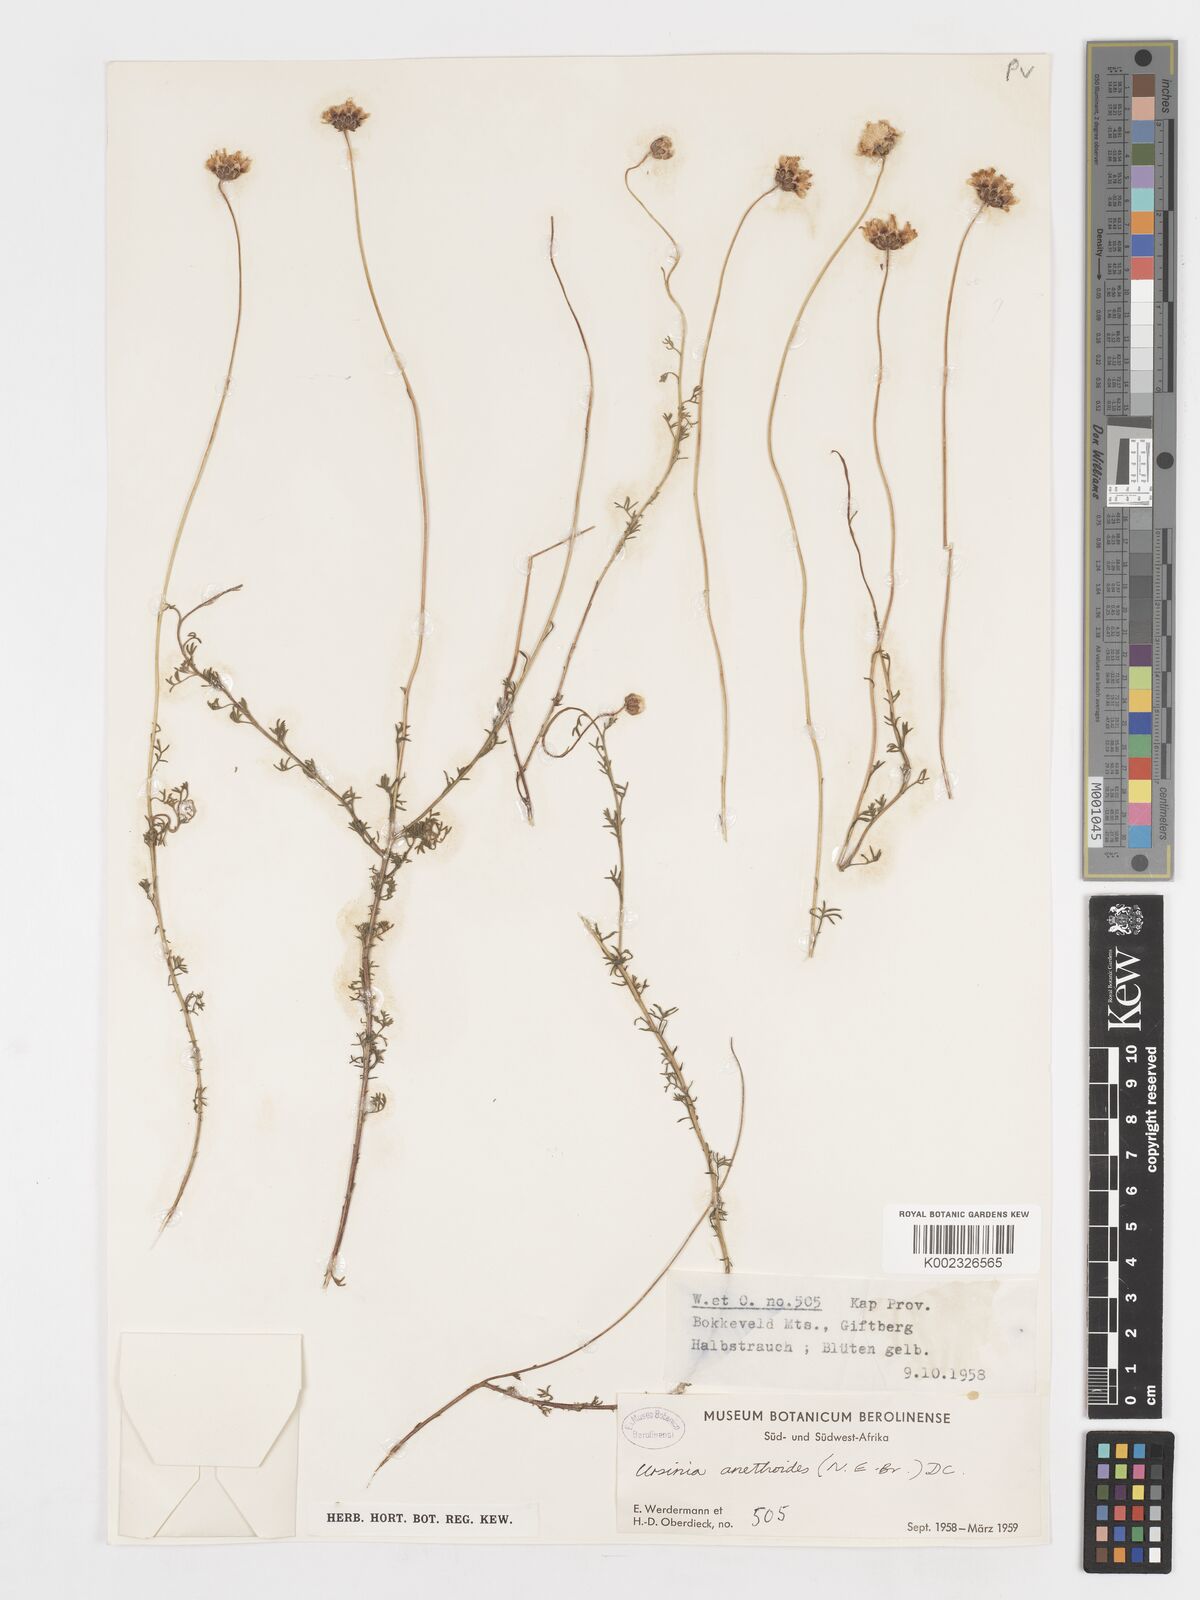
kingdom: Plantae
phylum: Tracheophyta
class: Magnoliopsida
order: Asterales
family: Asteraceae
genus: Ursinia
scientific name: Ursinia anethoides
